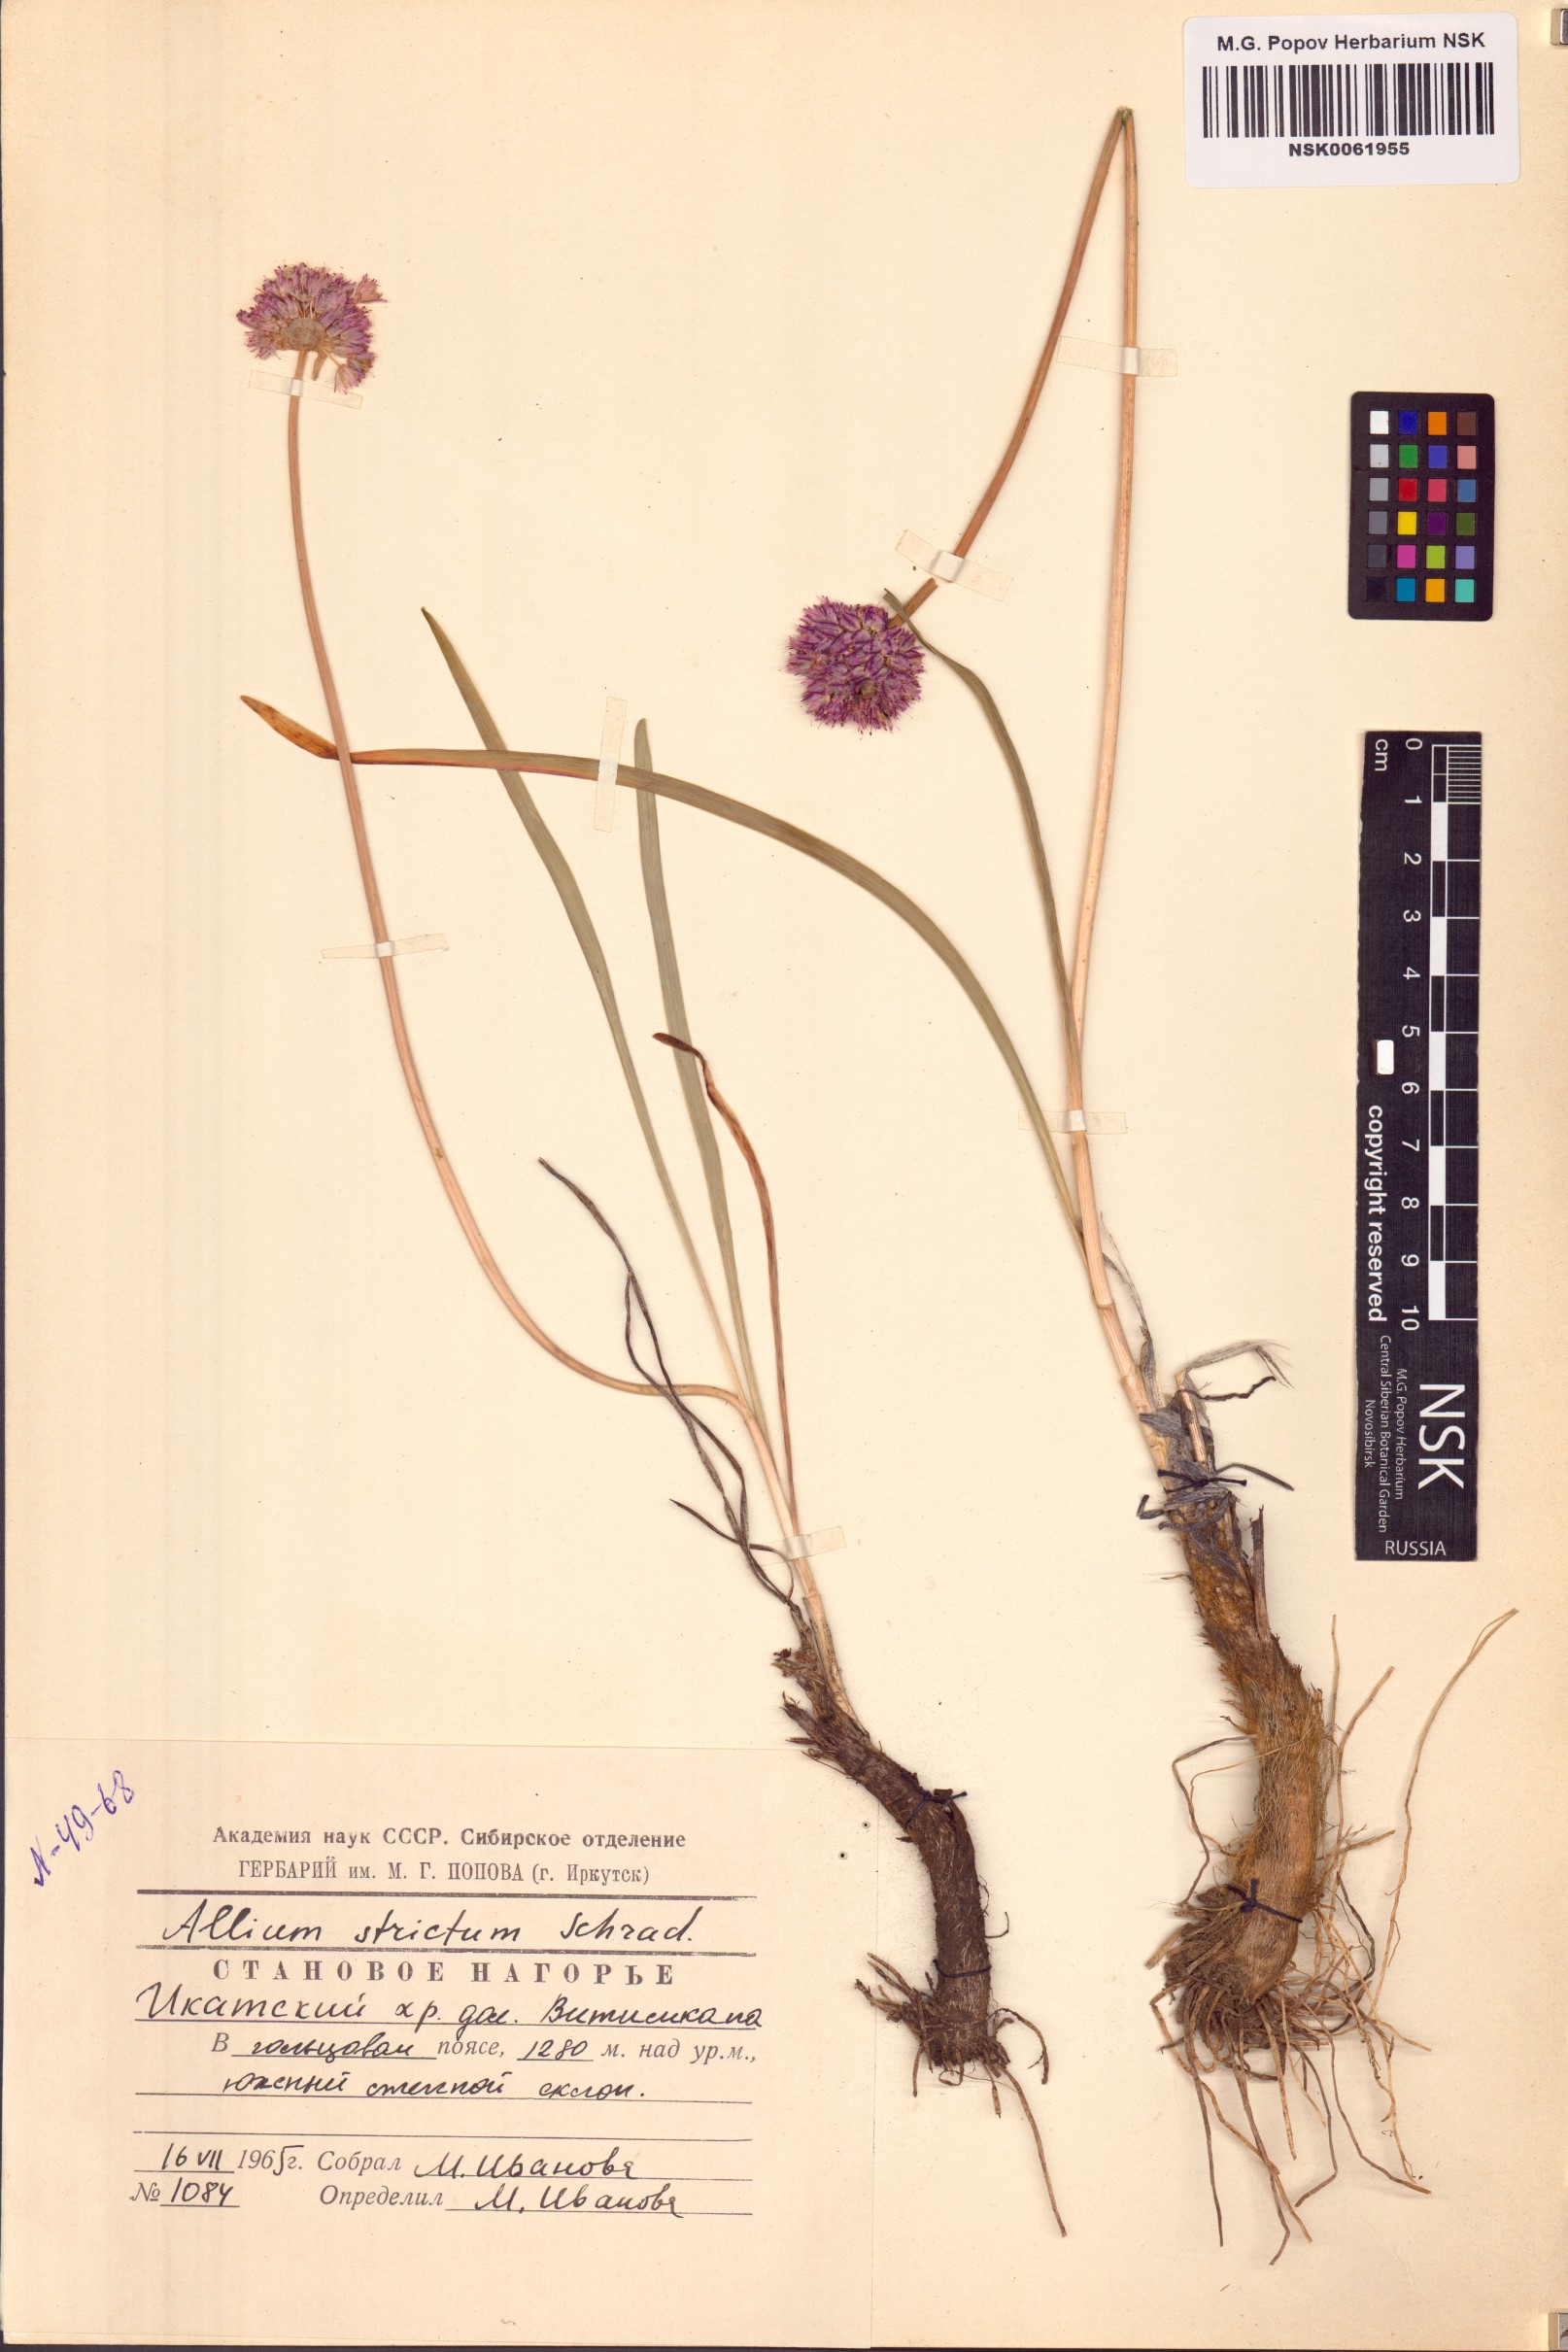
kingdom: Plantae
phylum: Tracheophyta
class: Liliopsida
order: Asparagales
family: Amaryllidaceae
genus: Allium
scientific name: Allium strictum
